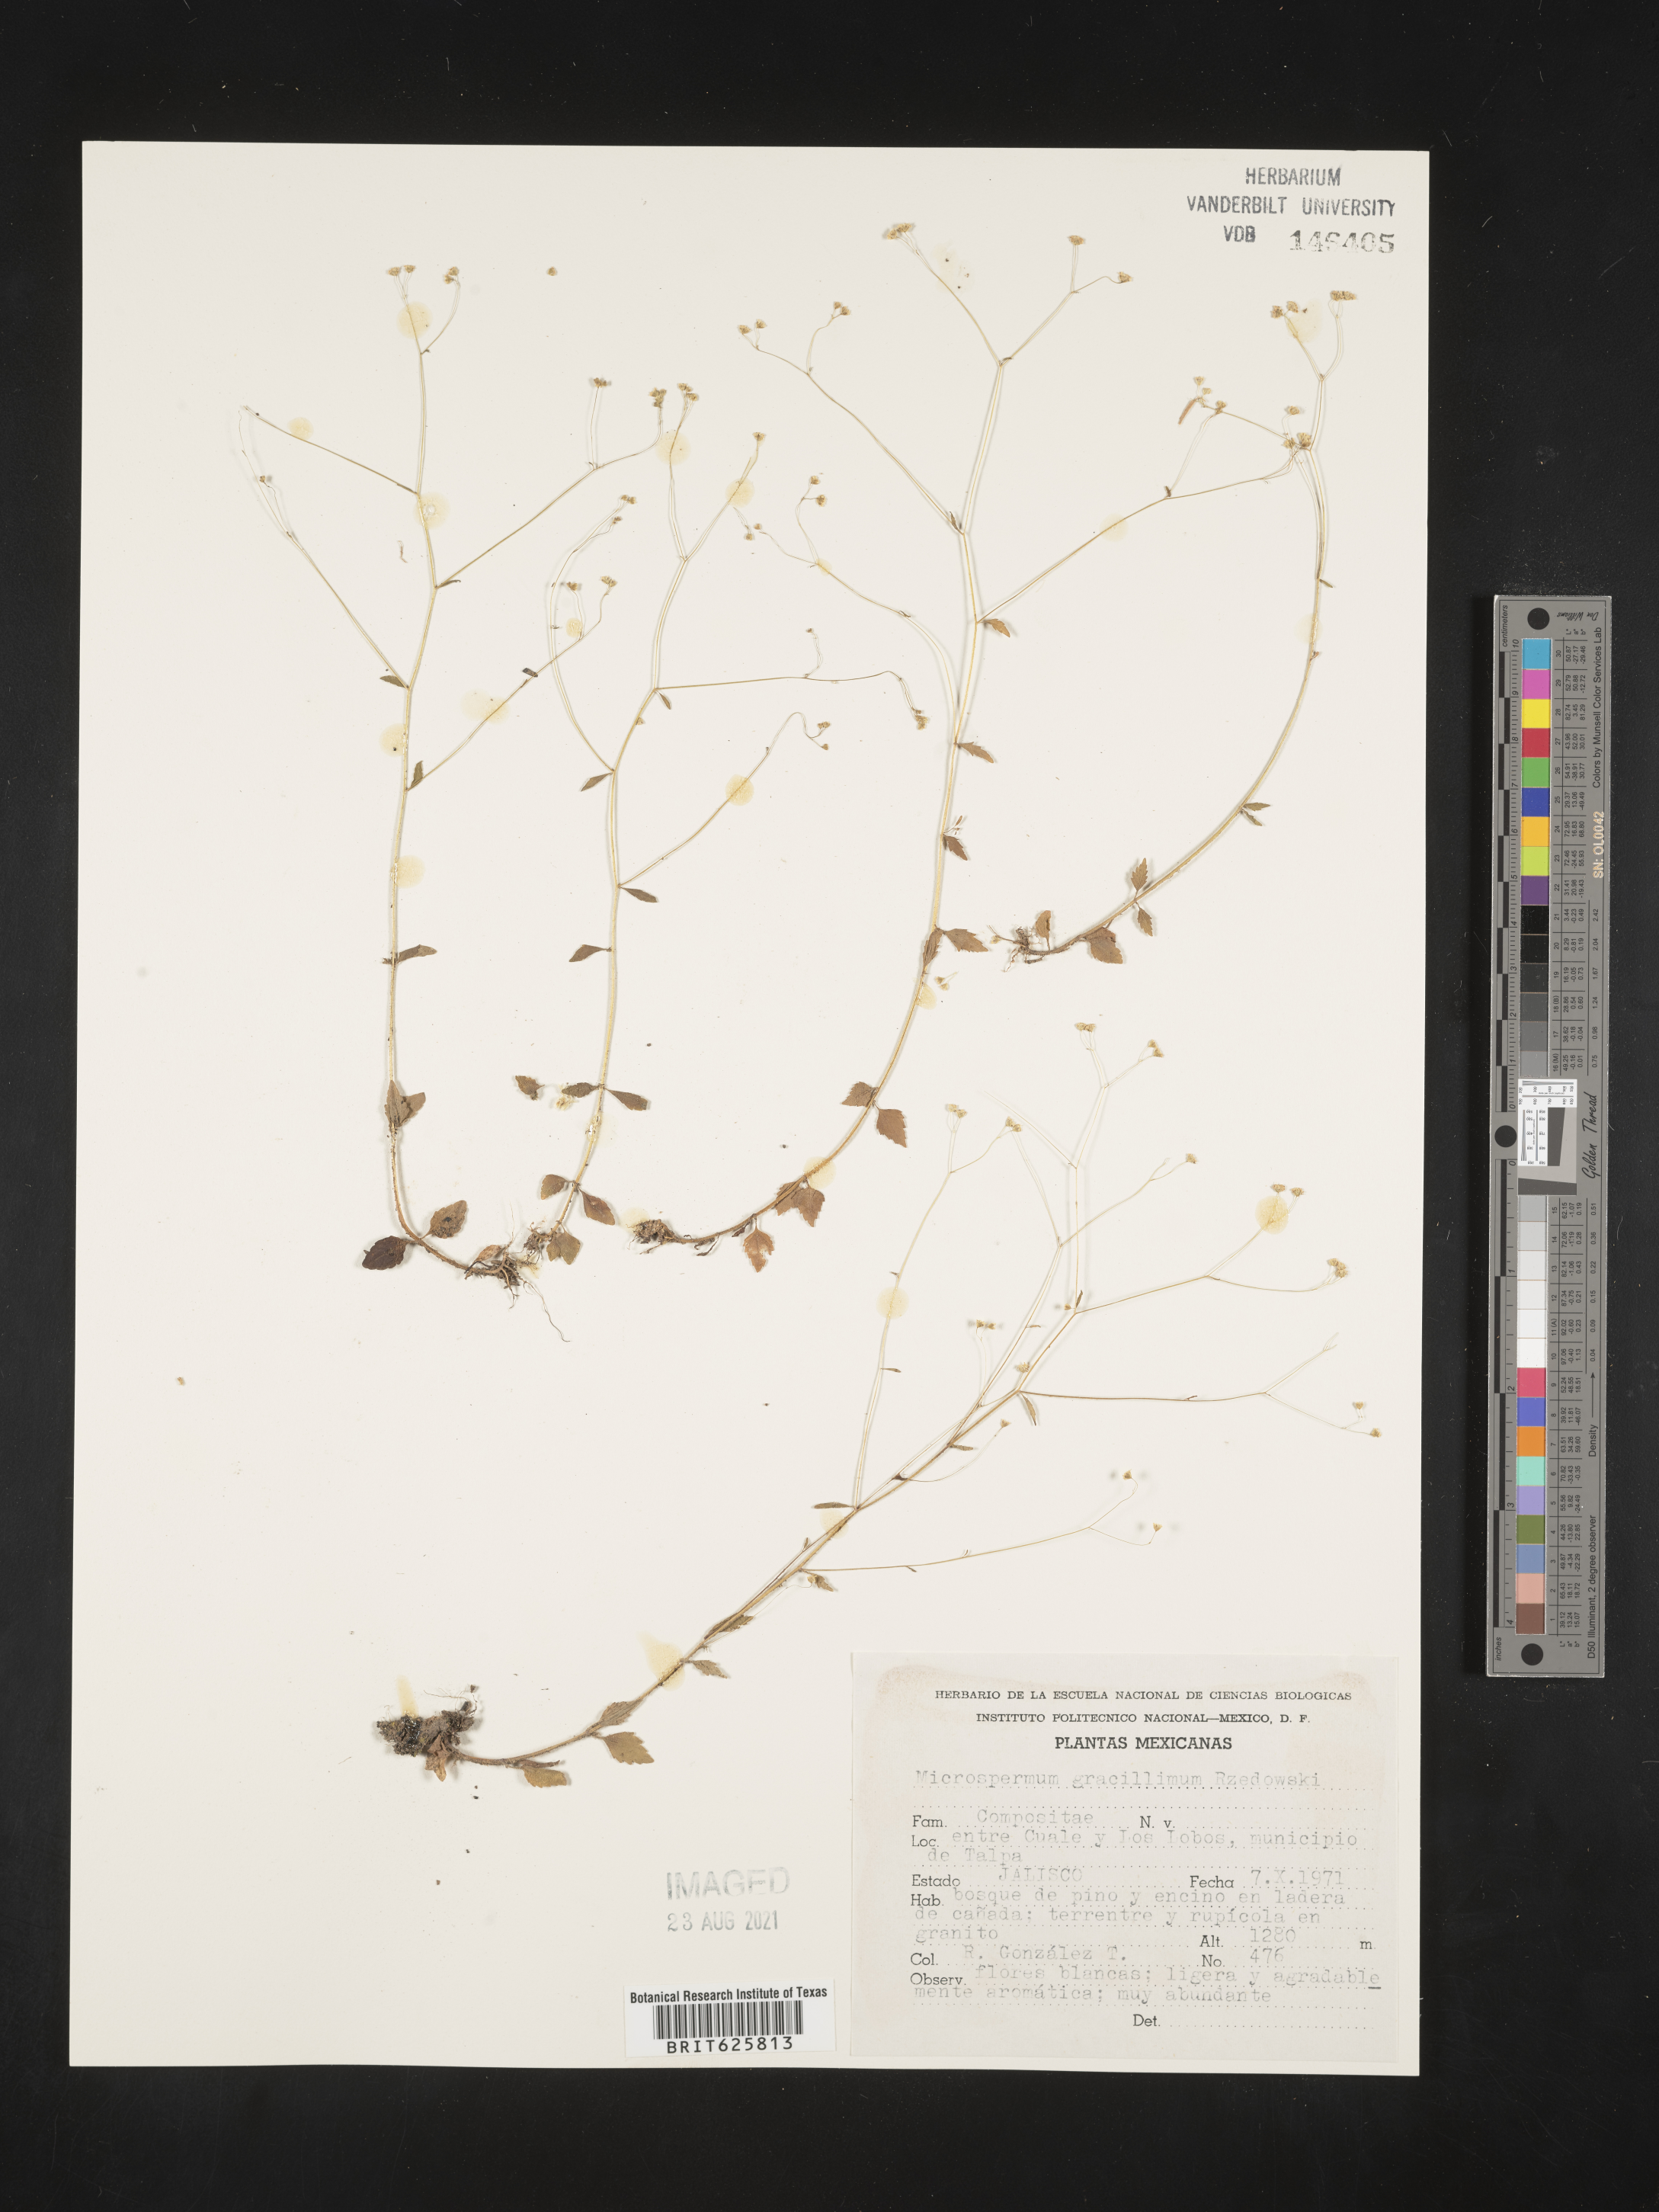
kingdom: Plantae
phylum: Tracheophyta
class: Magnoliopsida
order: Asterales
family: Asteraceae
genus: Microspermum
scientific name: Microspermum
